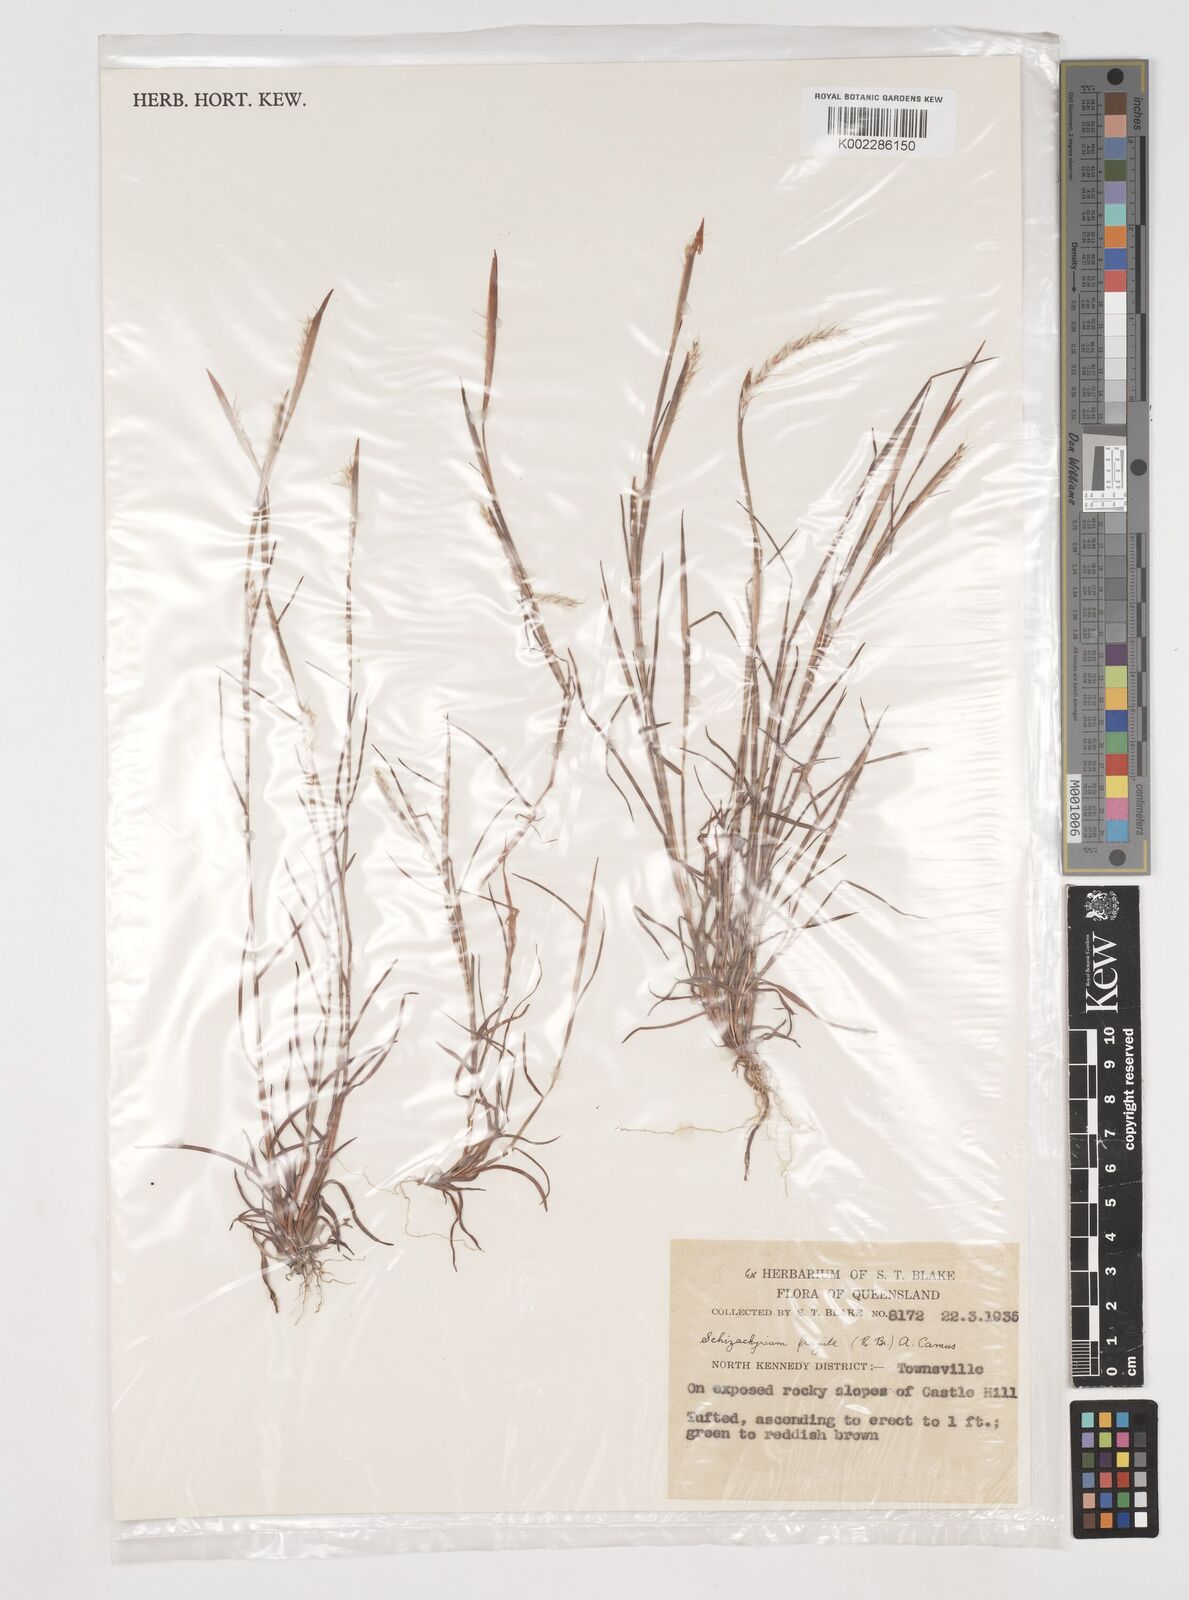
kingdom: Plantae
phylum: Tracheophyta
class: Liliopsida
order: Poales
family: Poaceae
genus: Schizachyrium
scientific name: Schizachyrium fragile
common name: Red spathe grass
